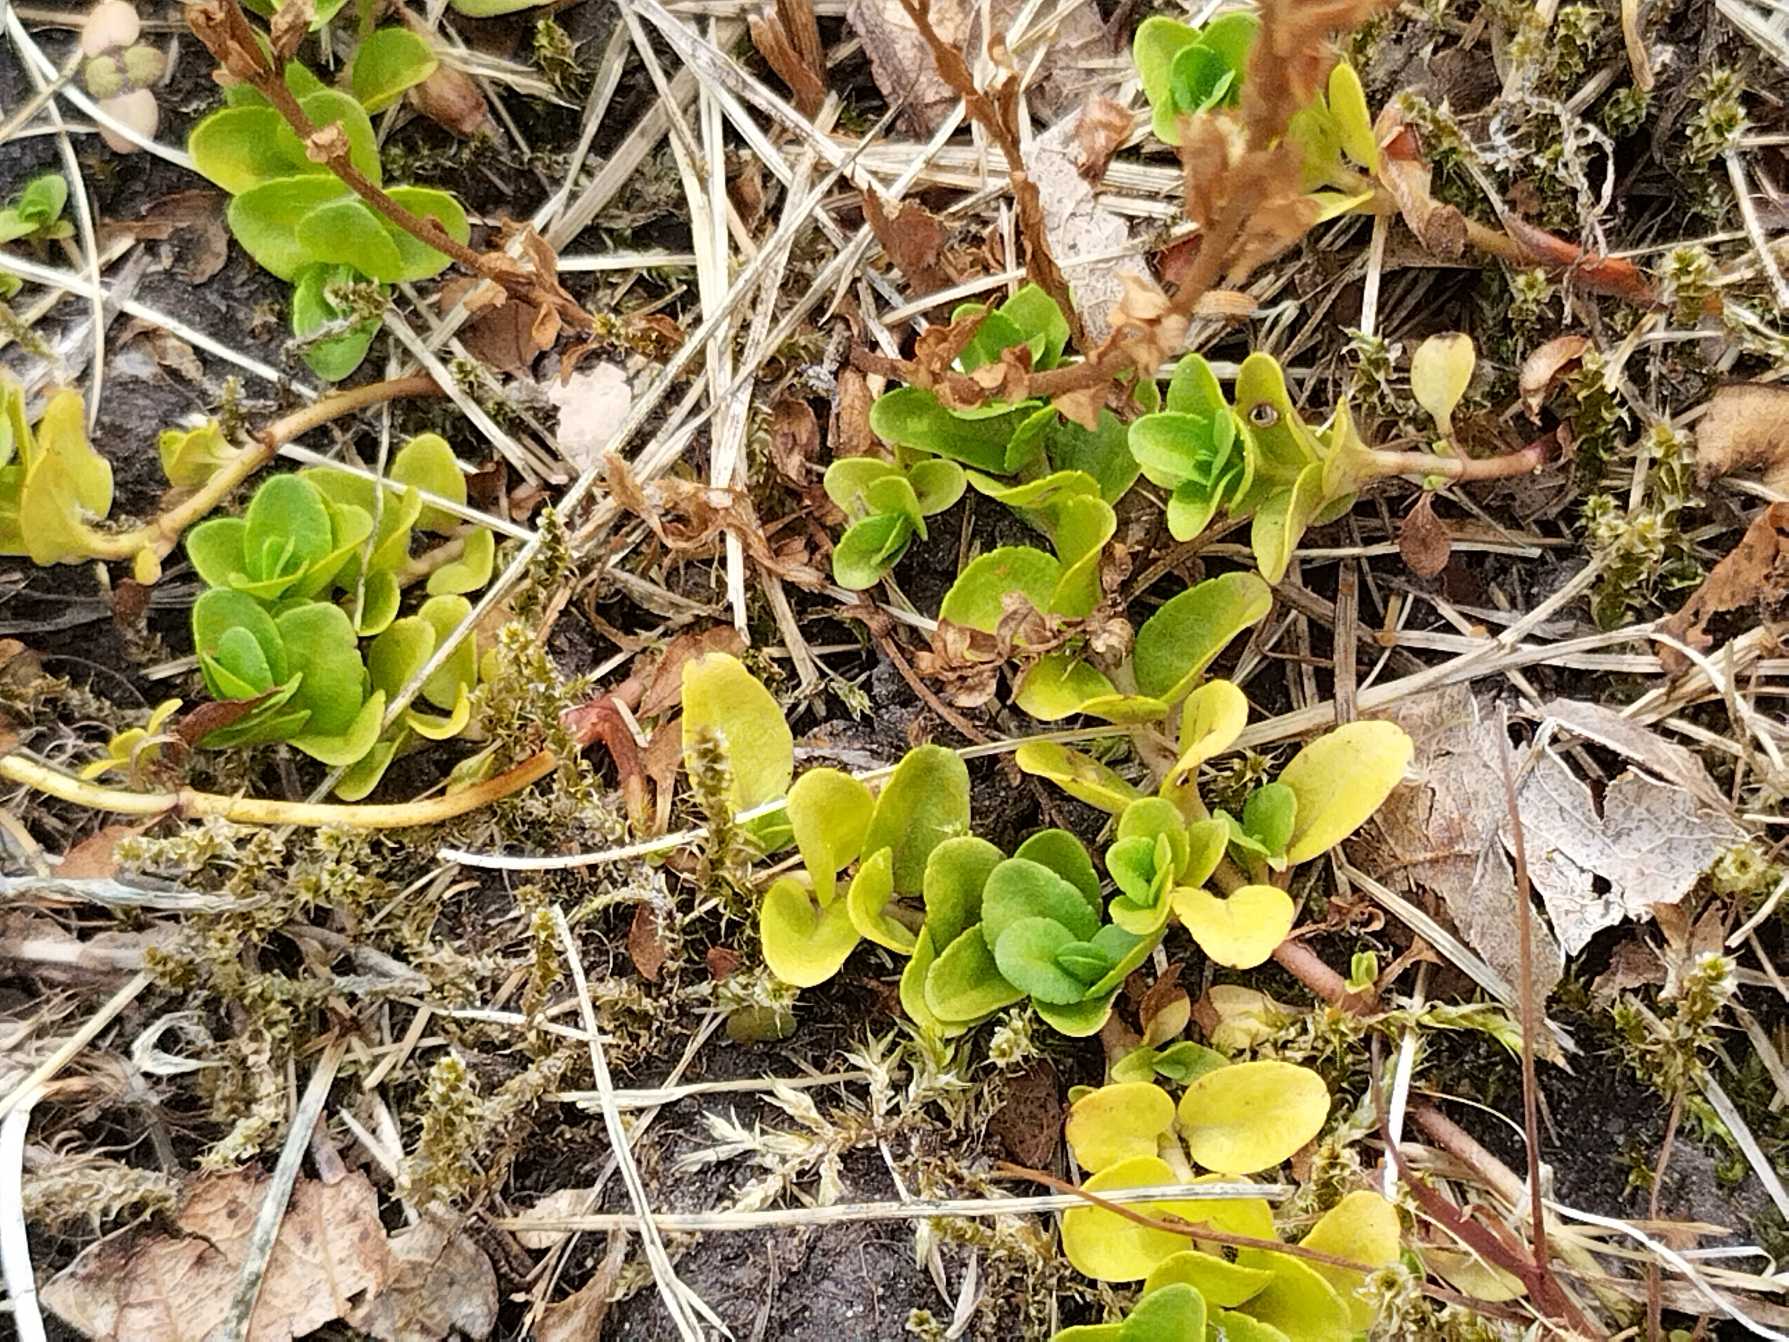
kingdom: Plantae
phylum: Tracheophyta
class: Magnoliopsida
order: Lamiales
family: Plantaginaceae
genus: Veronica
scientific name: Veronica serpyllifolia
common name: Glat ærenpris
